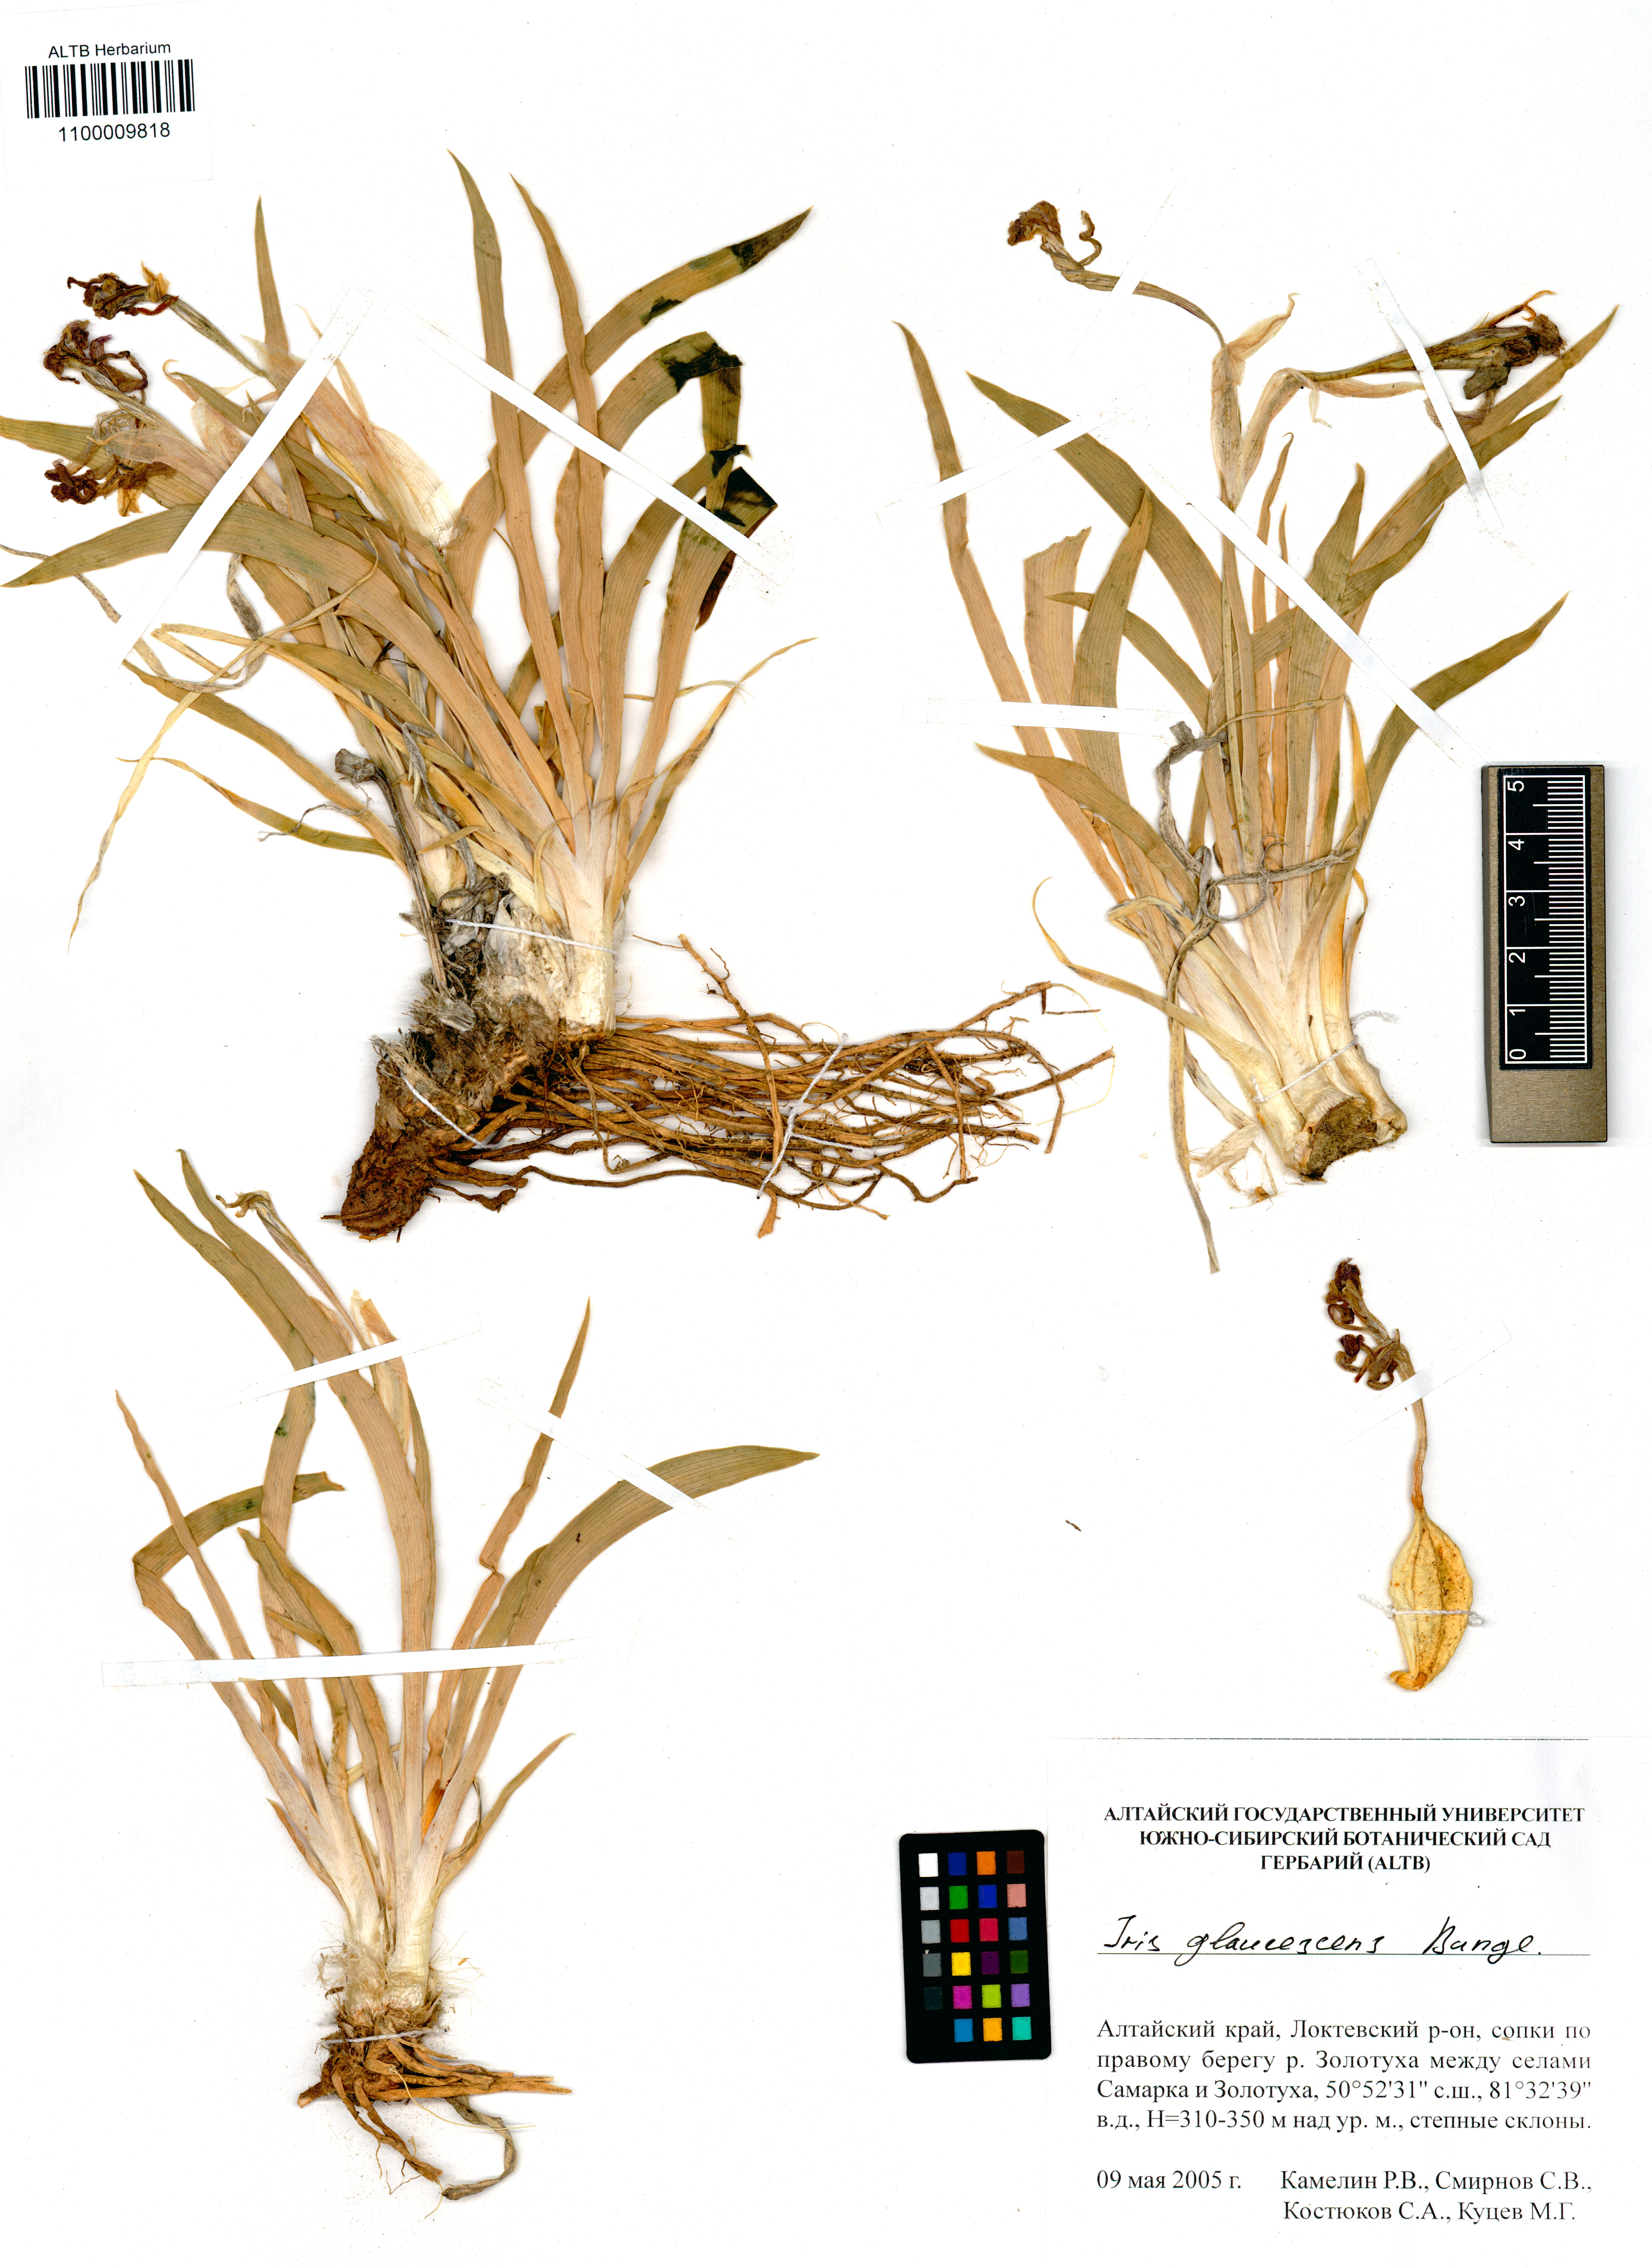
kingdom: Plantae
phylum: Tracheophyta
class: Liliopsida
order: Asparagales
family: Iridaceae
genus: Iris
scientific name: Iris glaucescens
